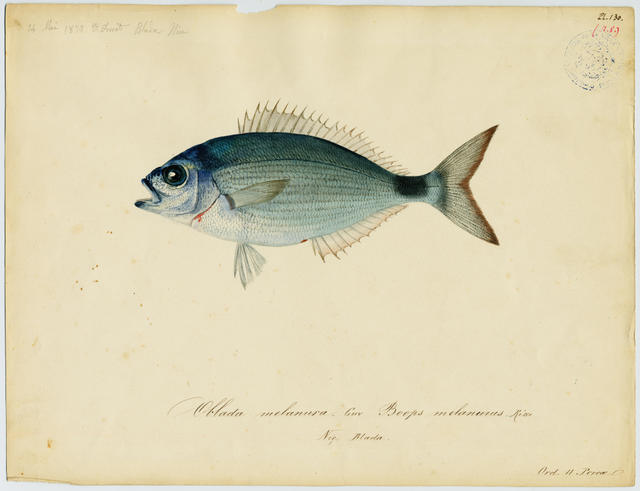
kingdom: Animalia
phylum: Chordata
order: Perciformes
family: Sparidae
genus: Oblada
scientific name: Oblada melanura
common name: Saddled seabream
